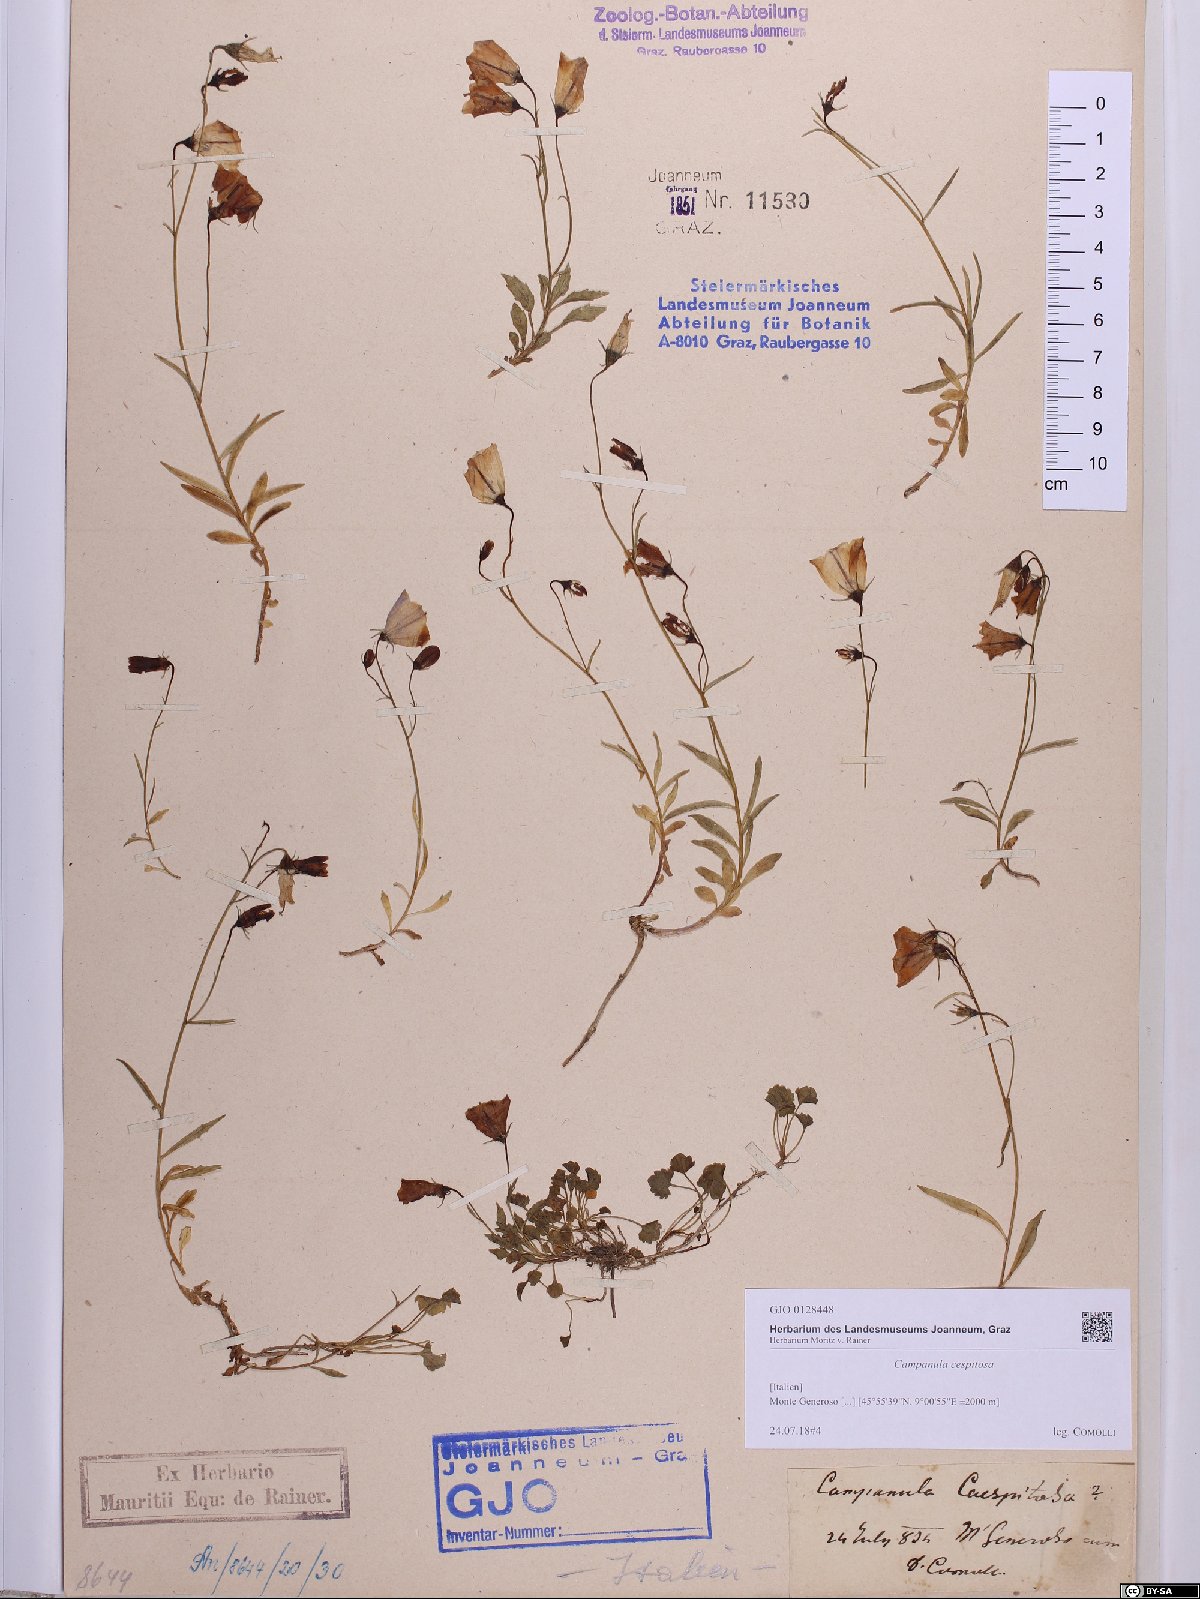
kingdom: Plantae
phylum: Tracheophyta
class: Magnoliopsida
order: Asterales
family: Campanulaceae
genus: Campanula
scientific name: Campanula cespitosa
